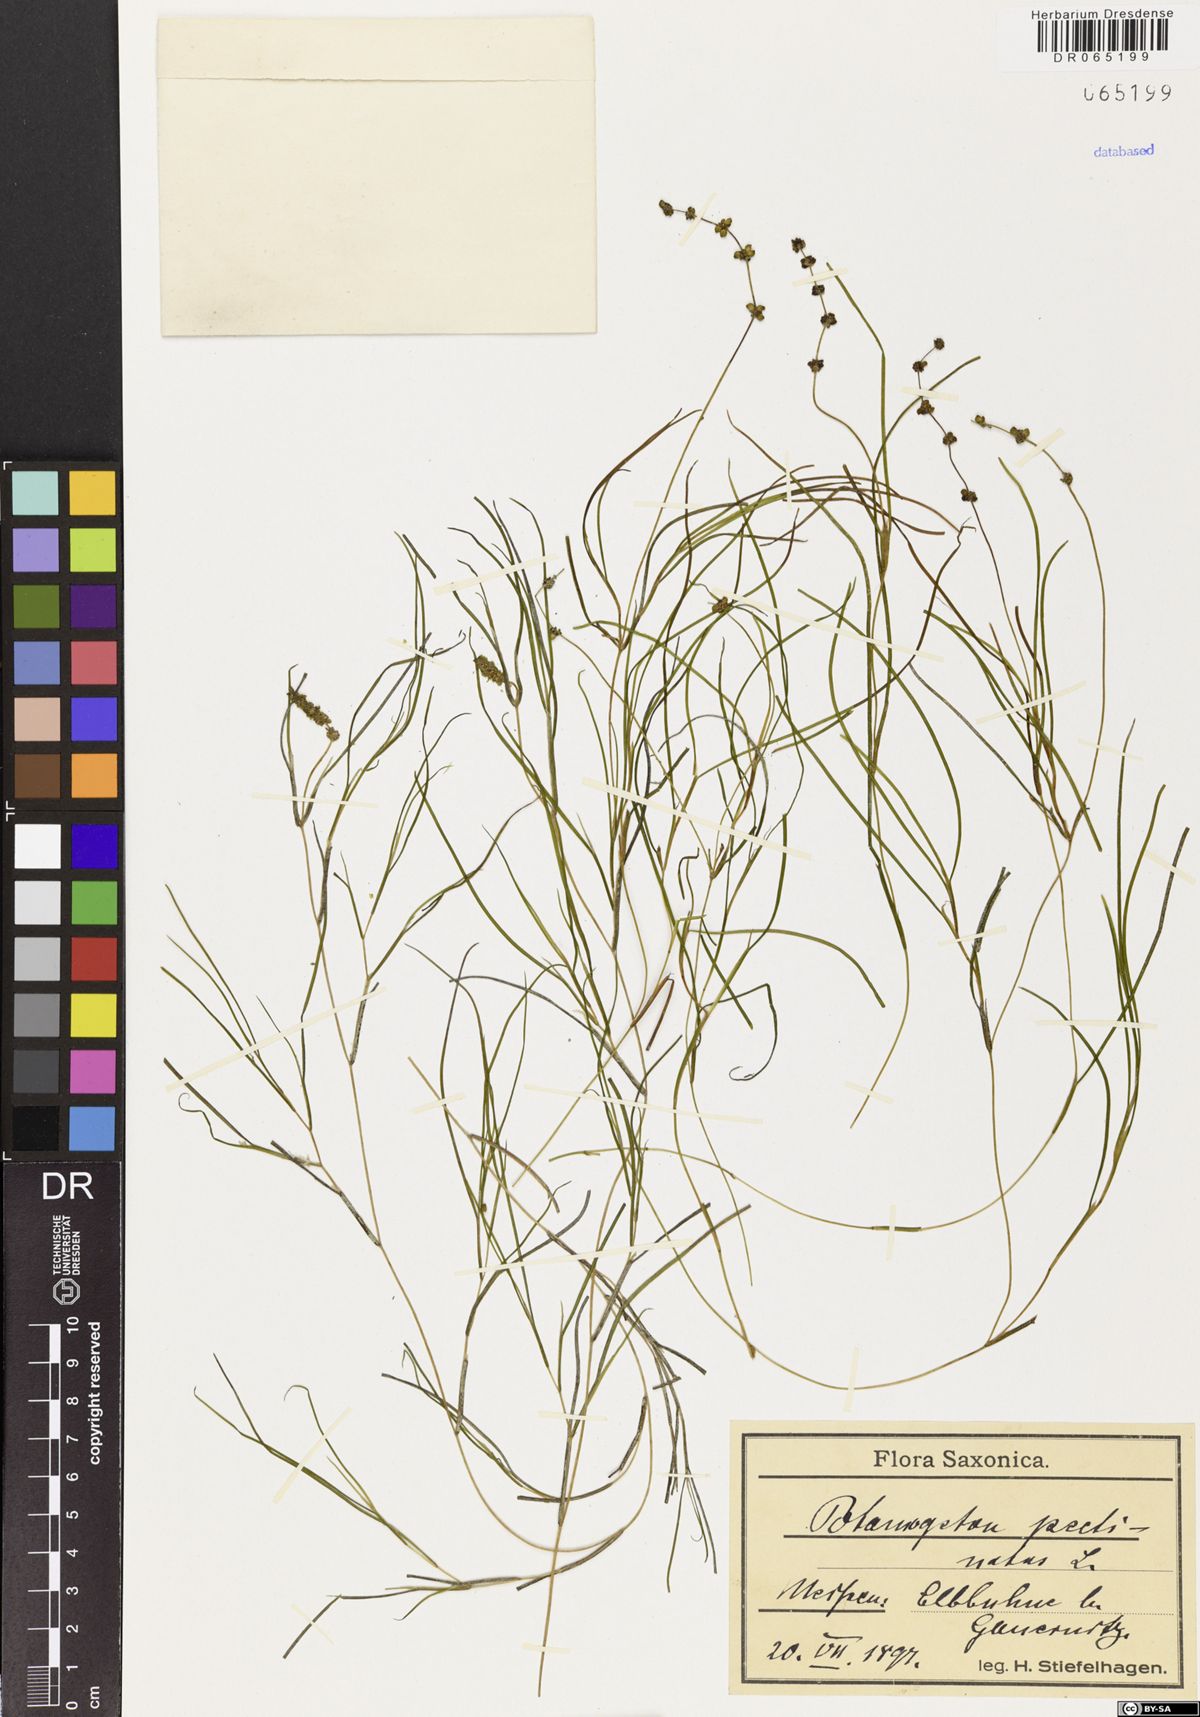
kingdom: Plantae
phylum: Tracheophyta
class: Liliopsida
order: Alismatales
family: Potamogetonaceae
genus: Stuckenia
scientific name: Stuckenia pectinata
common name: Sago pondweed
